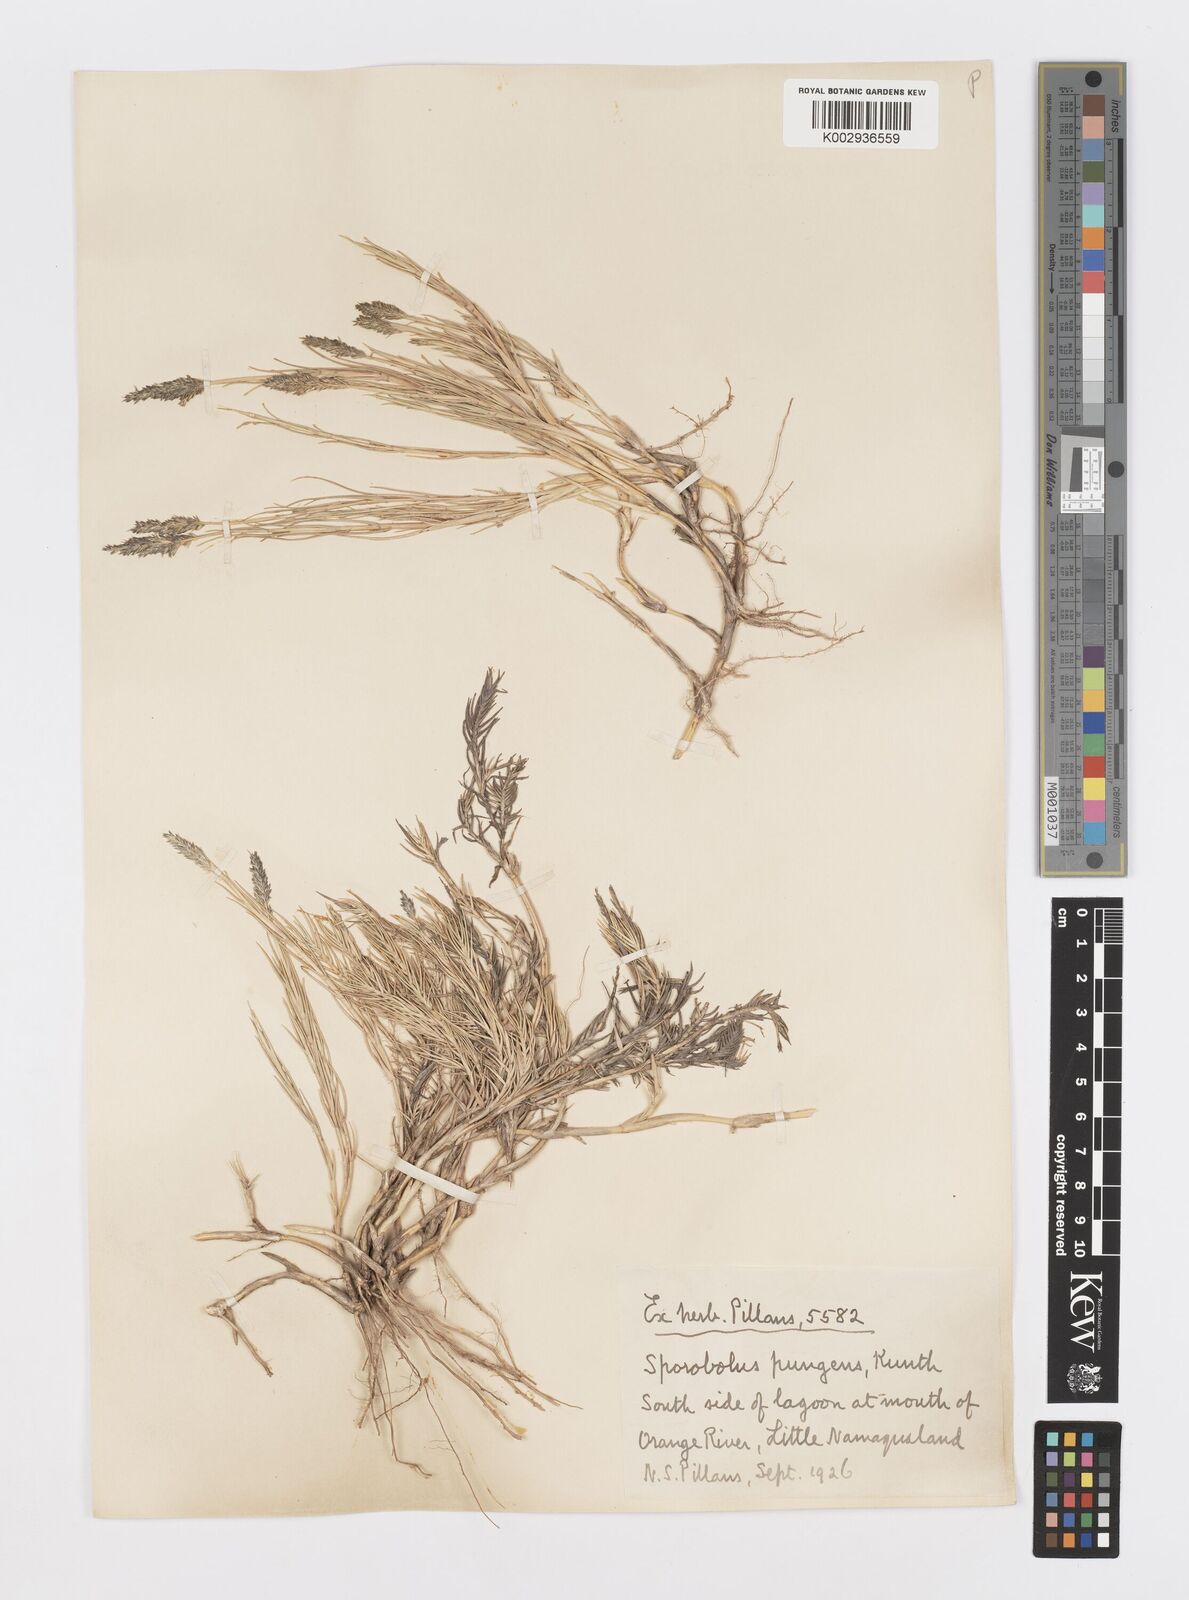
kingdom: Plantae
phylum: Tracheophyta
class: Liliopsida
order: Poales
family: Poaceae
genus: Sporobolus
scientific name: Sporobolus virginicus
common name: Beach dropseed
